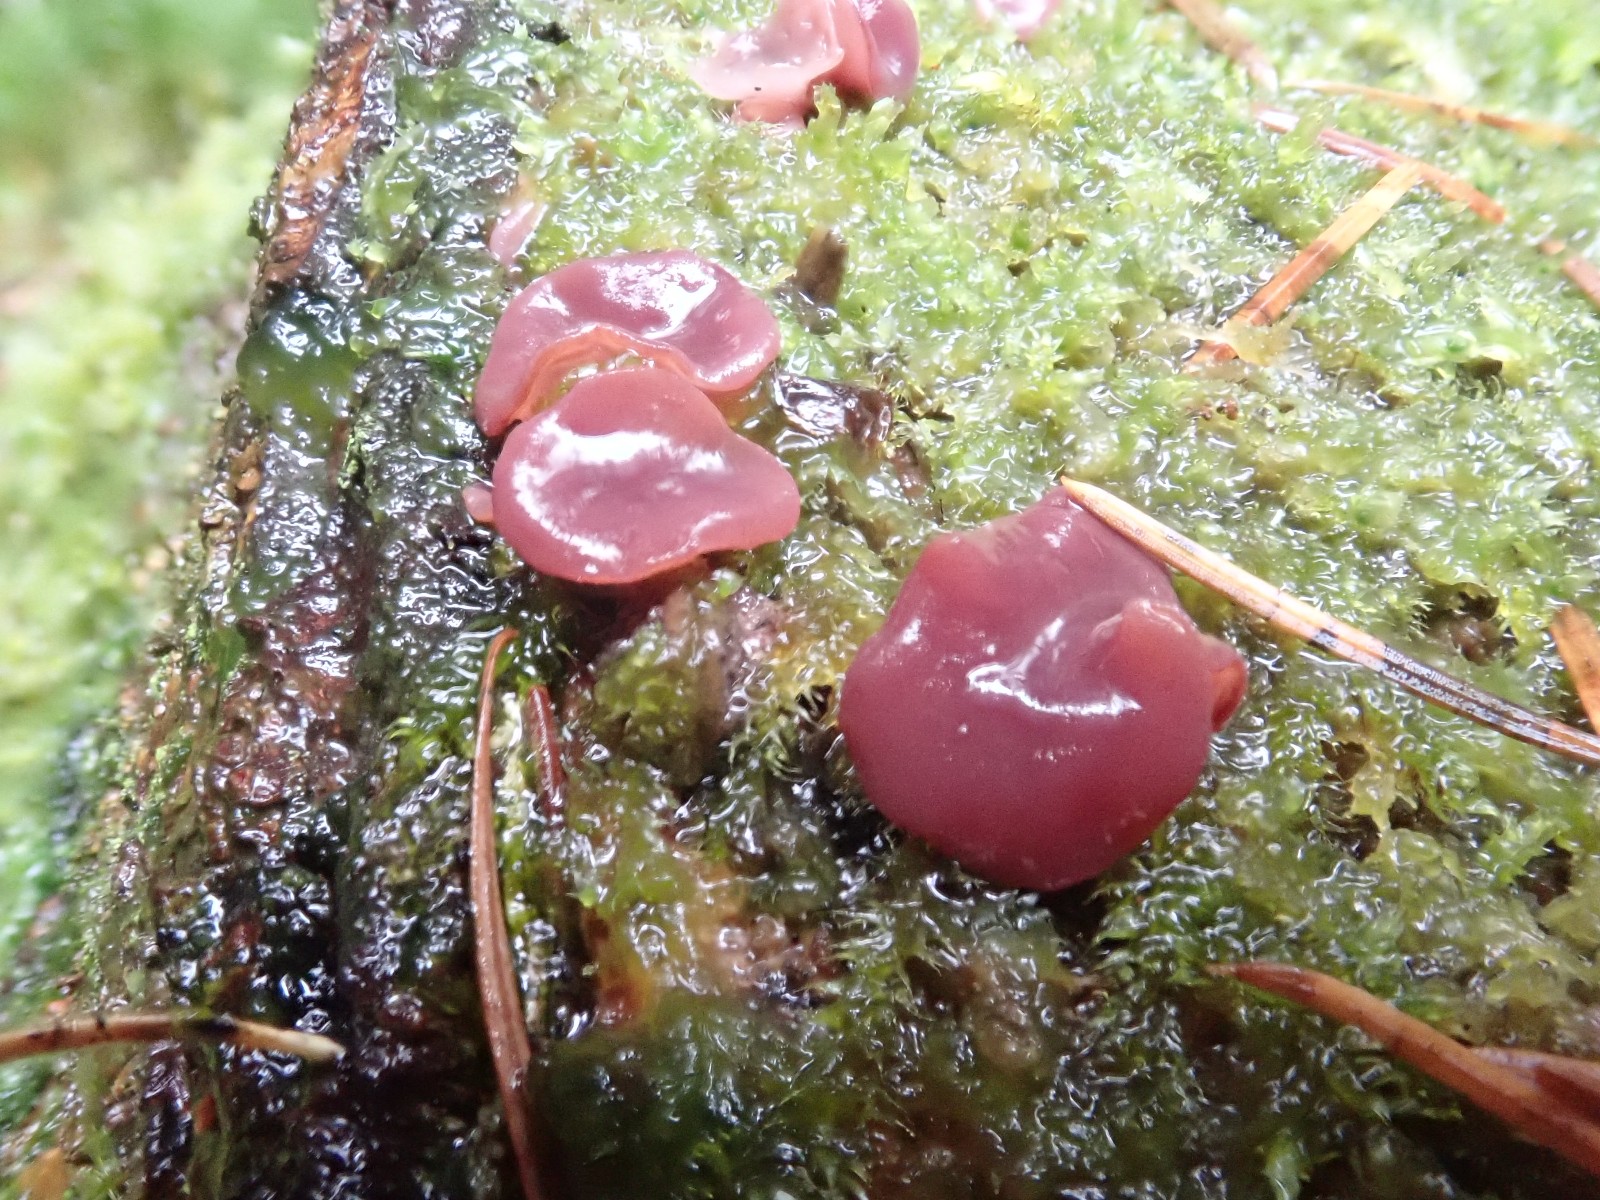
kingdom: Fungi
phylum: Ascomycota
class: Leotiomycetes
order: Helotiales
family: Gelatinodiscaceae
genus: Ascocoryne
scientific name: Ascocoryne
